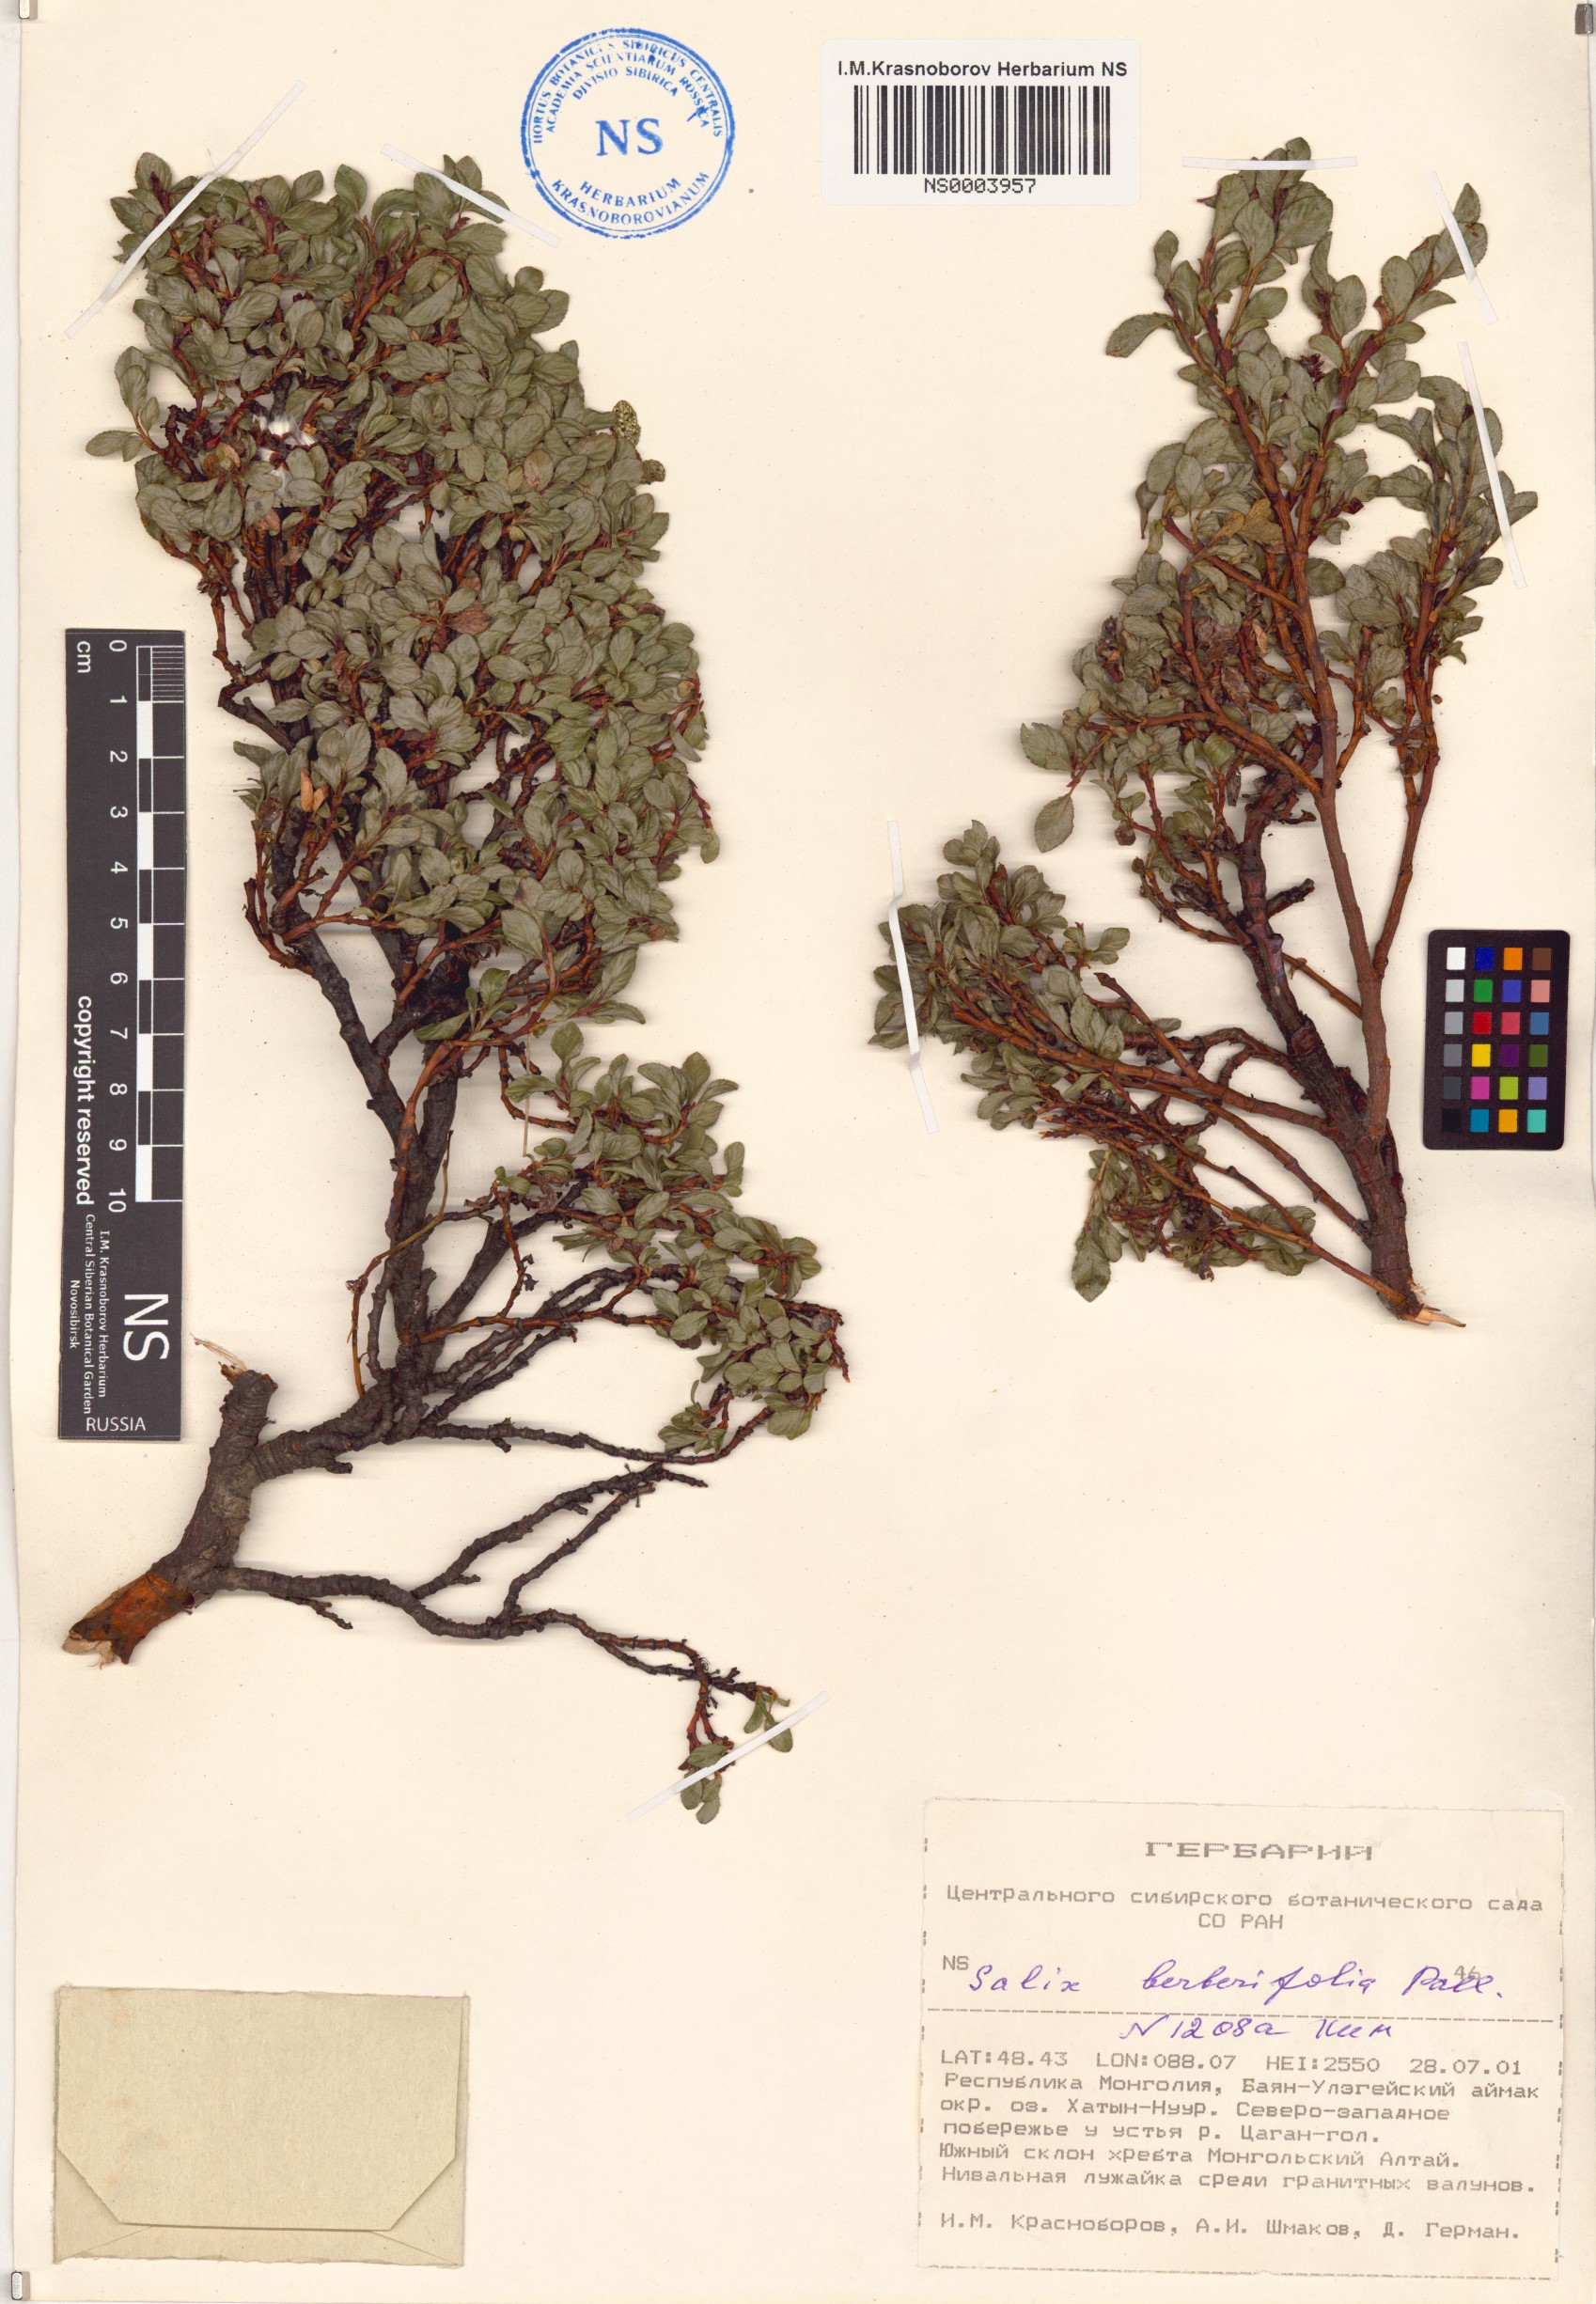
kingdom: Plantae
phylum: Tracheophyta
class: Magnoliopsida
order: Malpighiales
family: Salicaceae
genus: Salix
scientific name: Salix berberifolia
